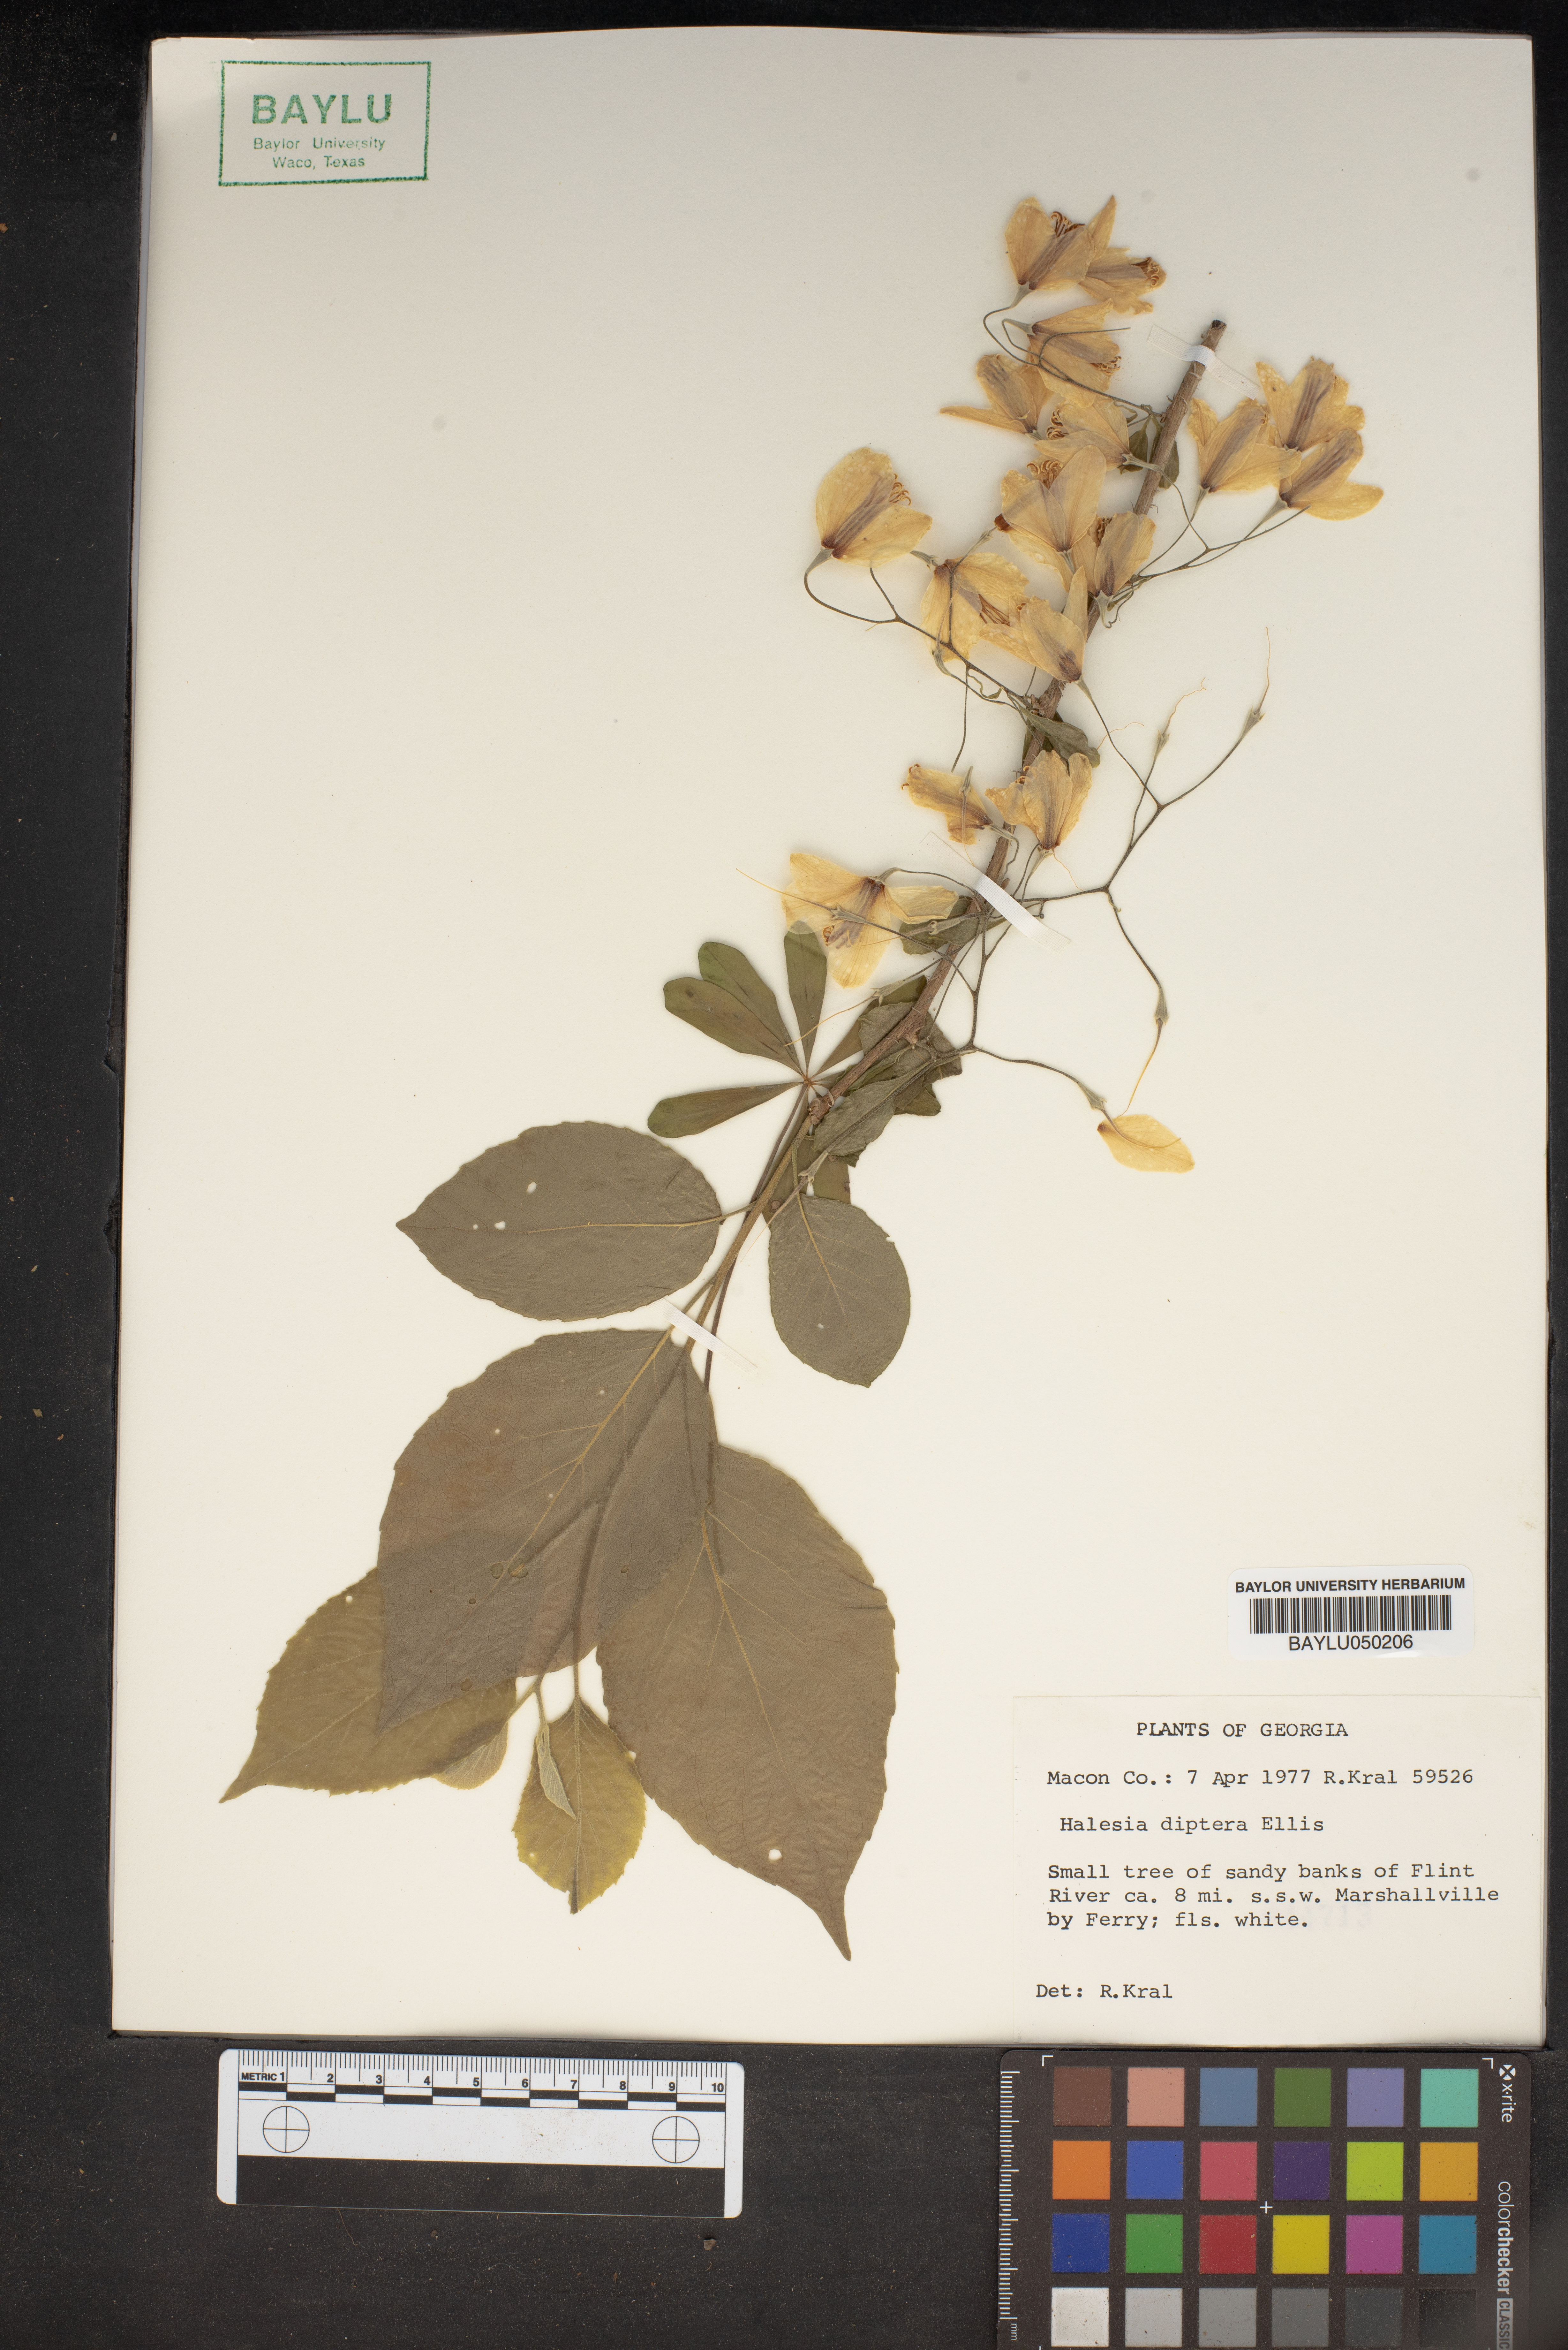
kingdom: Plantae
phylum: Tracheophyta
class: Magnoliopsida
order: Ericales
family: Styracaceae
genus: Halesia
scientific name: Halesia diptera
